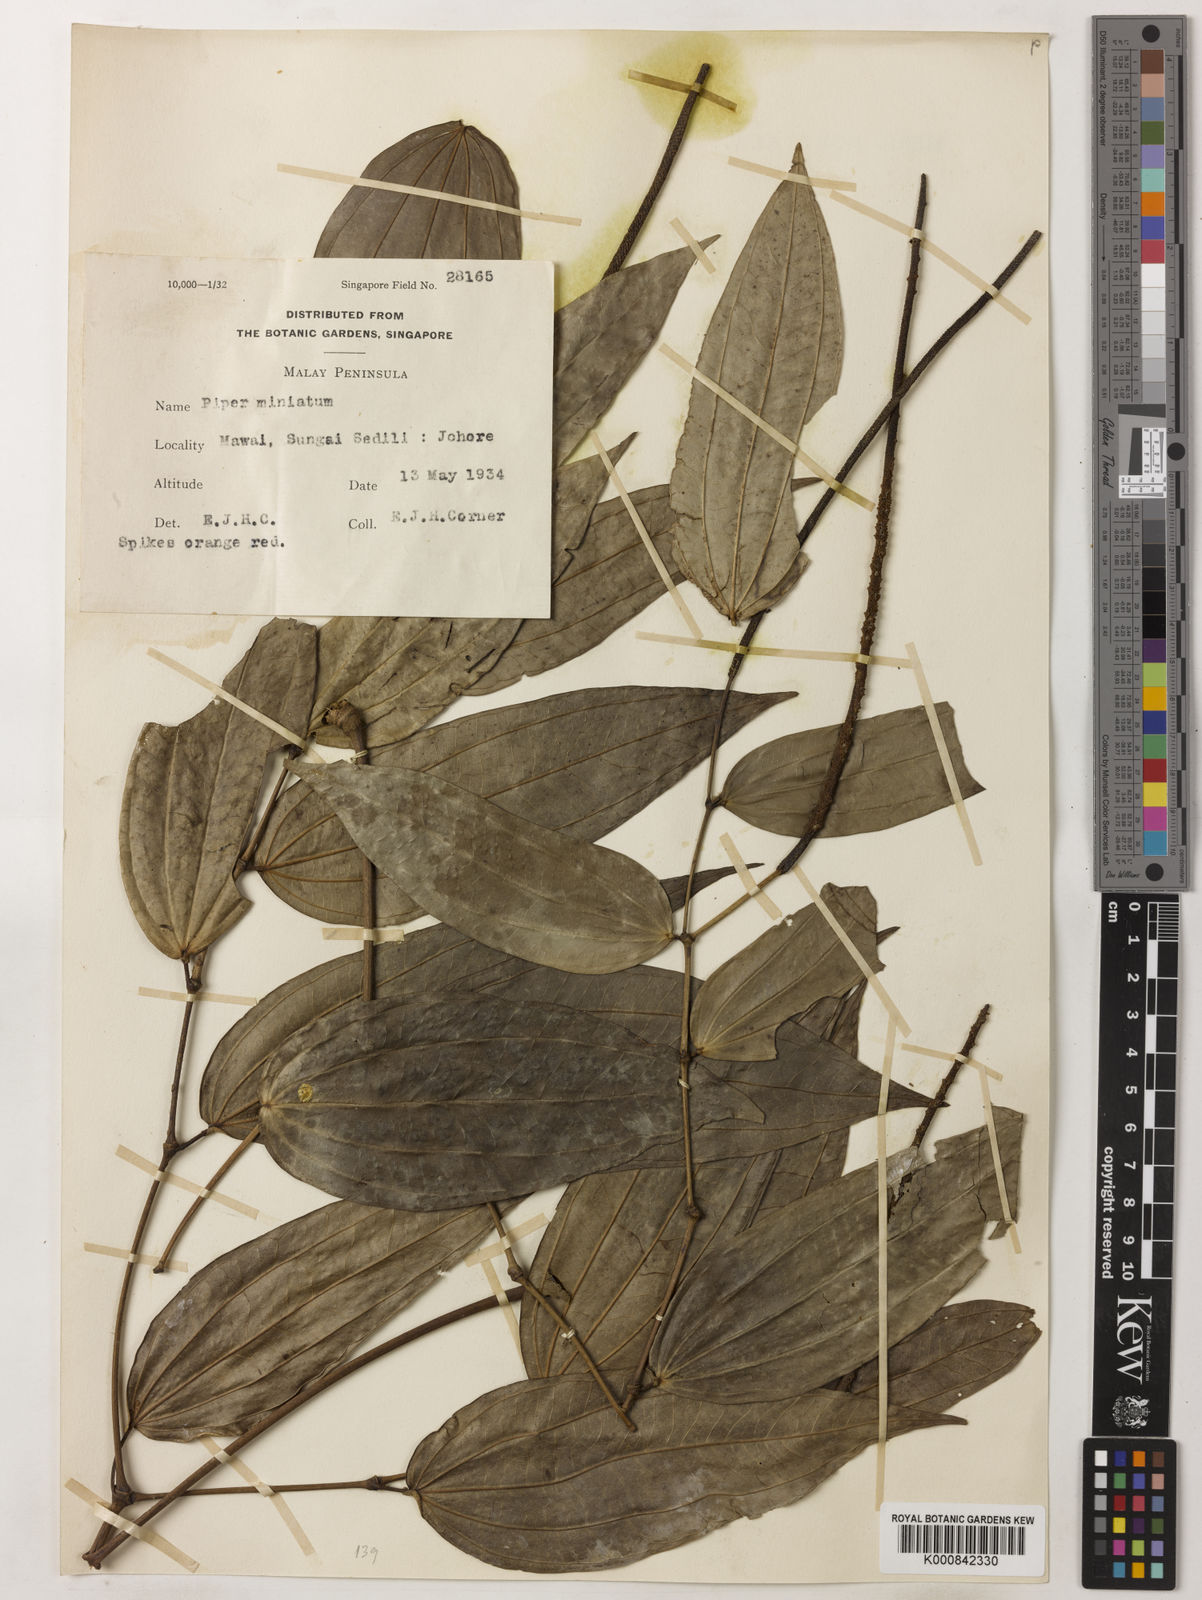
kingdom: Plantae
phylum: Tracheophyta
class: Magnoliopsida
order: Piperales
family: Piperaceae
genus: Piper
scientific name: Piper macropiper
